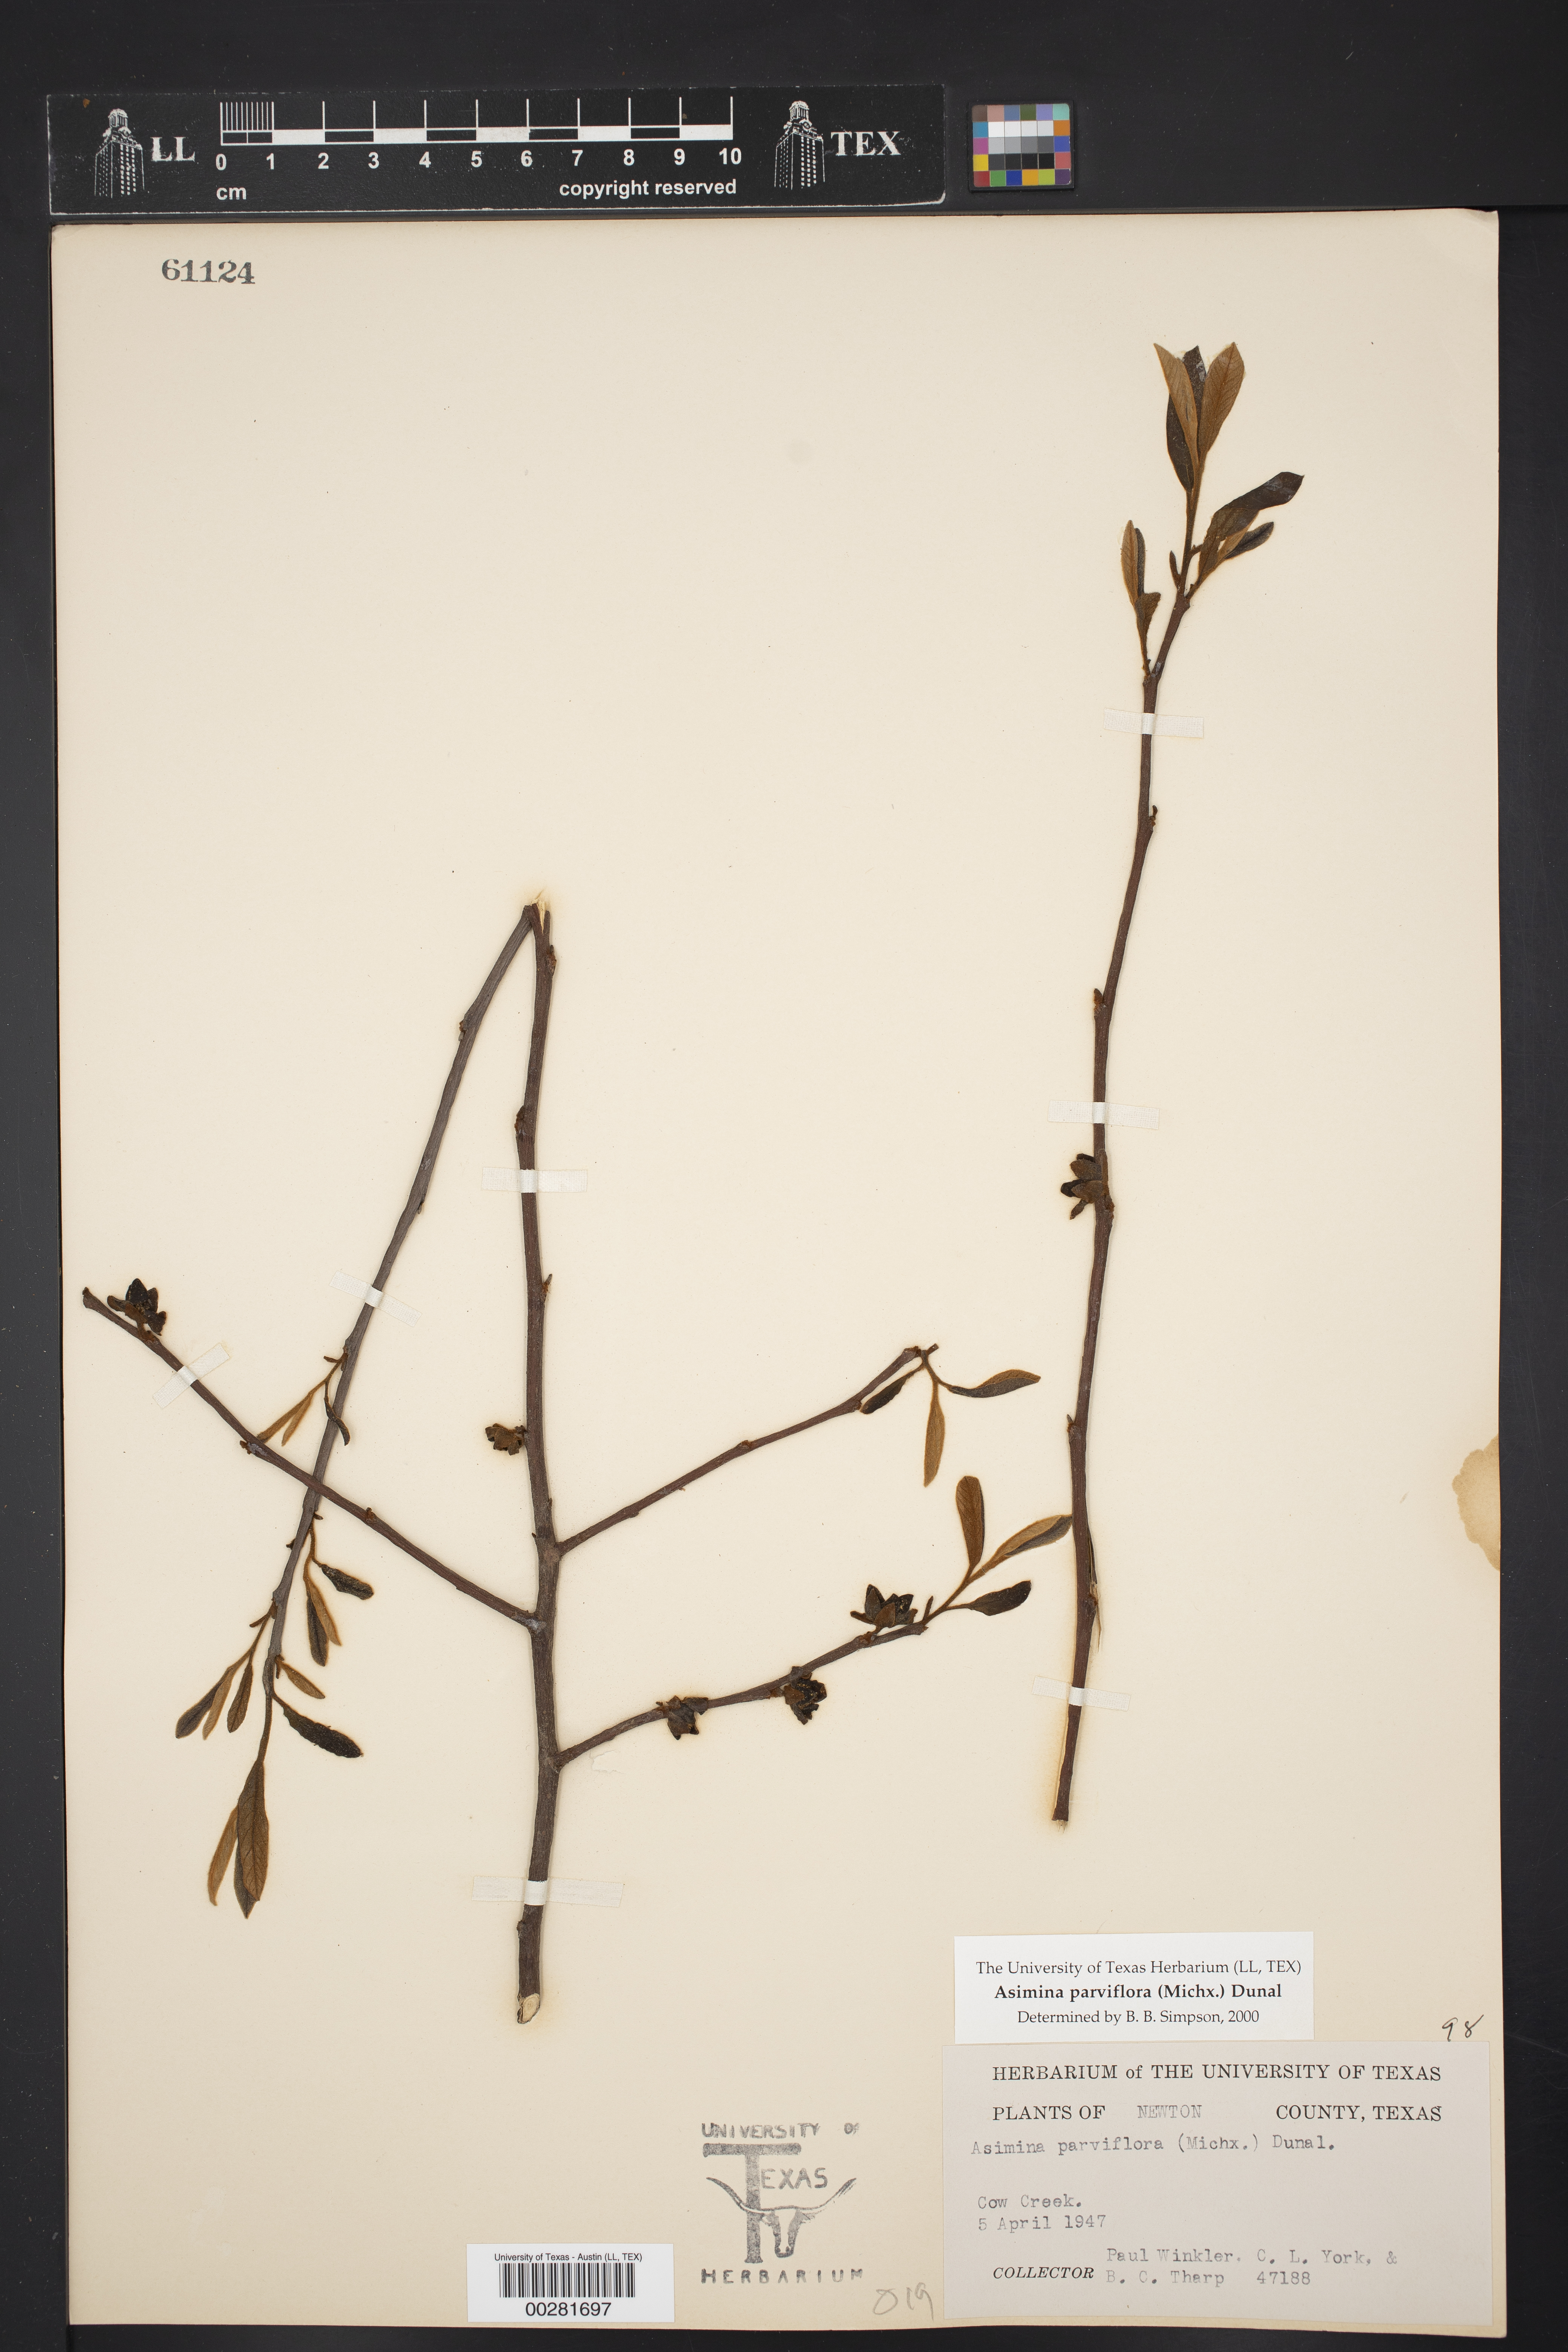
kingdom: Plantae
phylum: Tracheophyta
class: Magnoliopsida
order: Magnoliales
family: Annonaceae
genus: Asimina
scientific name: Asimina parviflora
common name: Dwarf pawpaw
